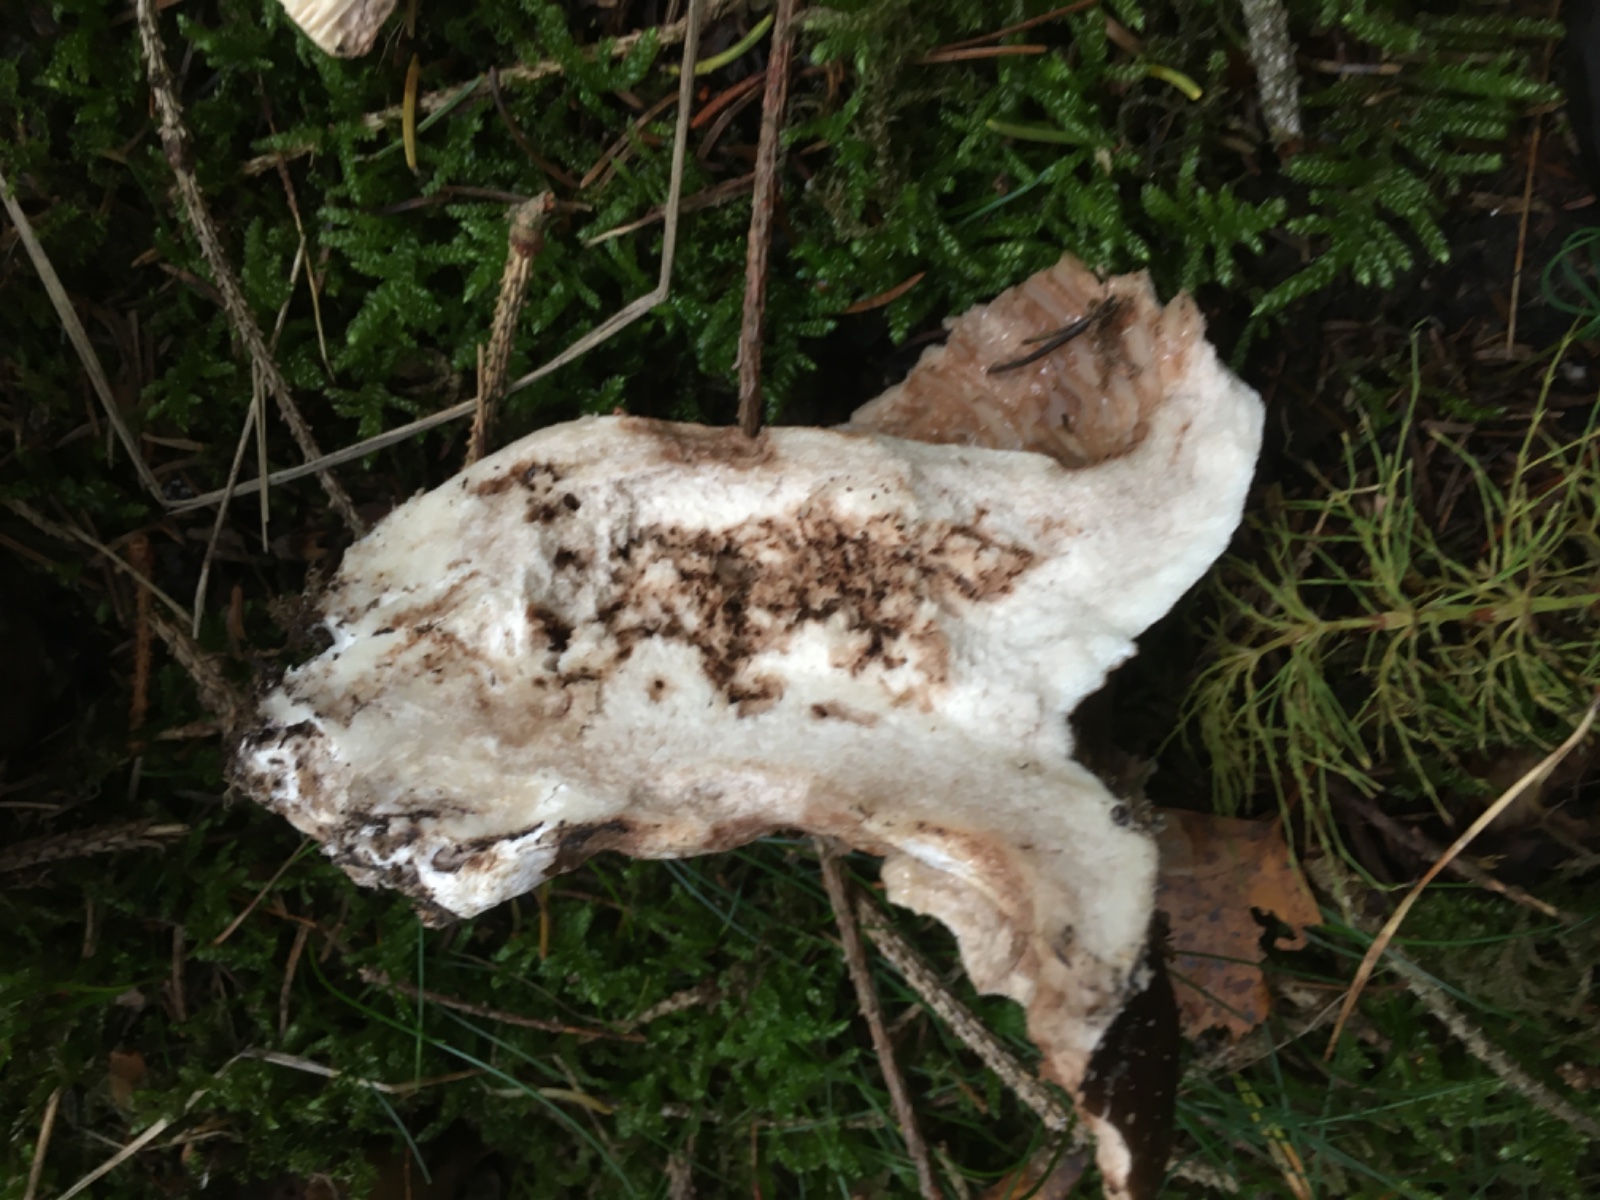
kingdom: Fungi
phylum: Basidiomycota
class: Agaricomycetes
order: Russulales
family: Russulaceae
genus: Russula
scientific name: Russula adusta
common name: sværtende skørhat
